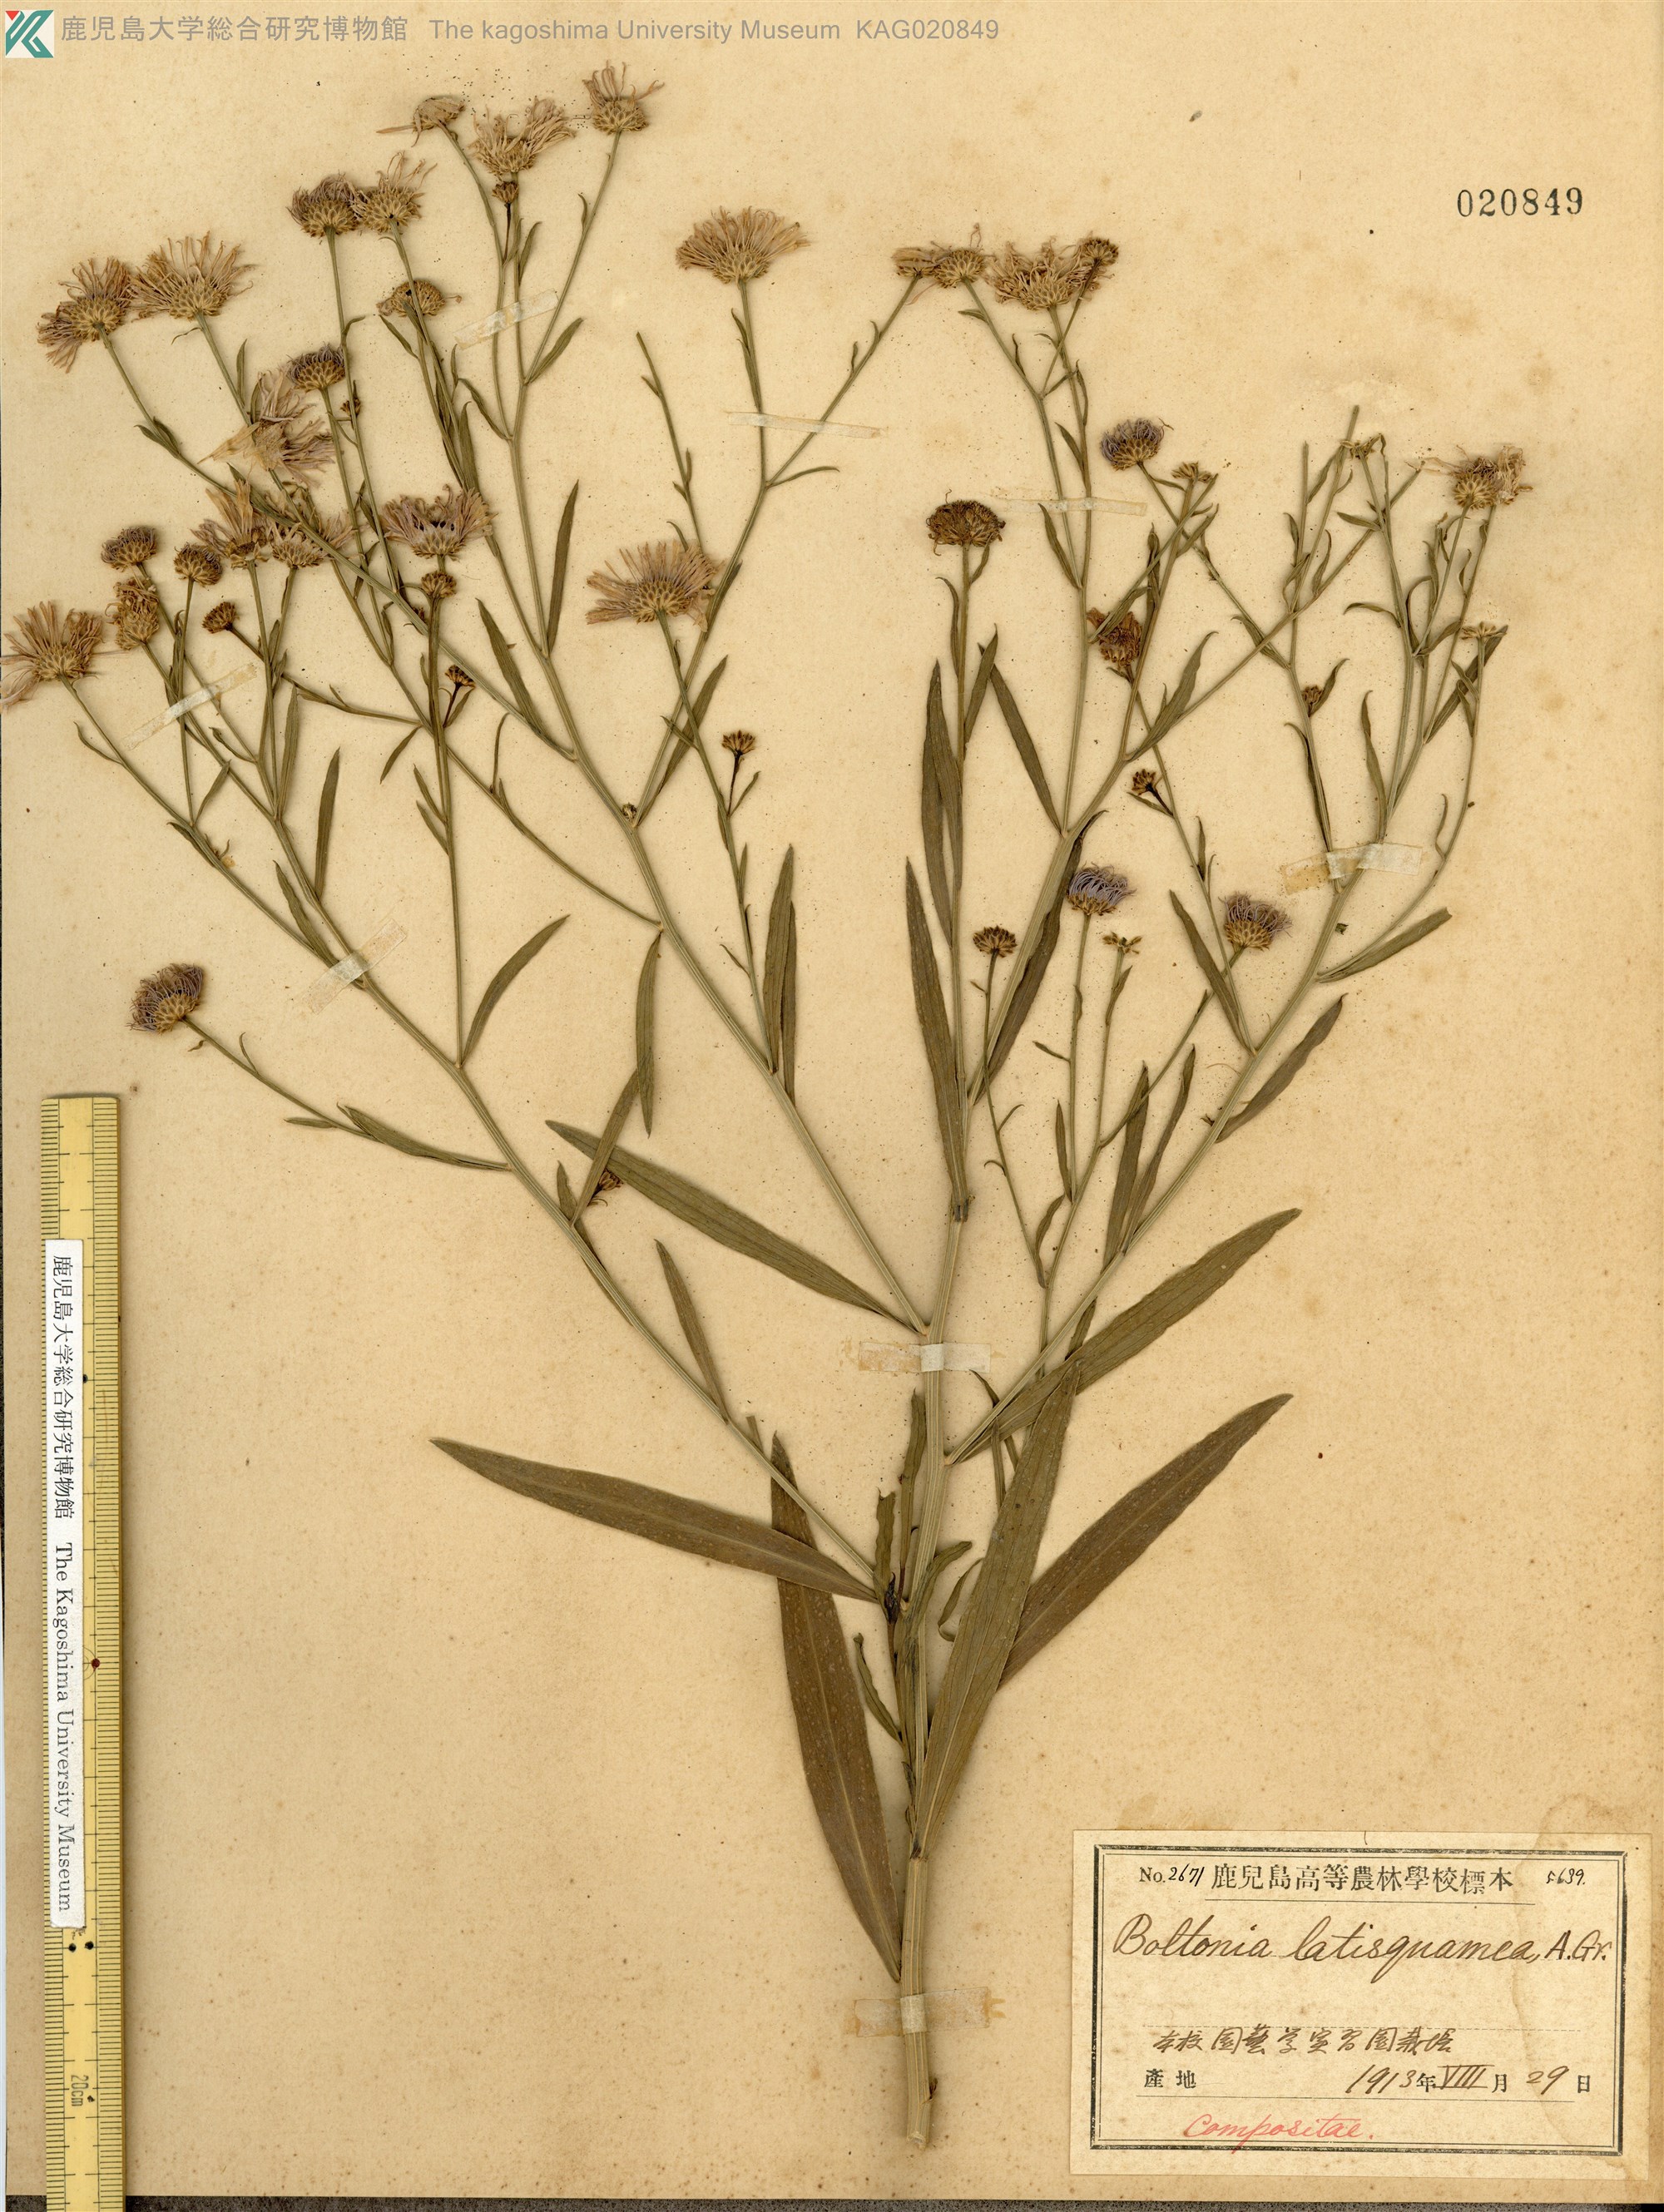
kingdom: Plantae
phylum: Tracheophyta
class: Magnoliopsida
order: Asterales
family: Asteraceae
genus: Boltonia
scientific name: Boltonia asteroides
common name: False chamomile
